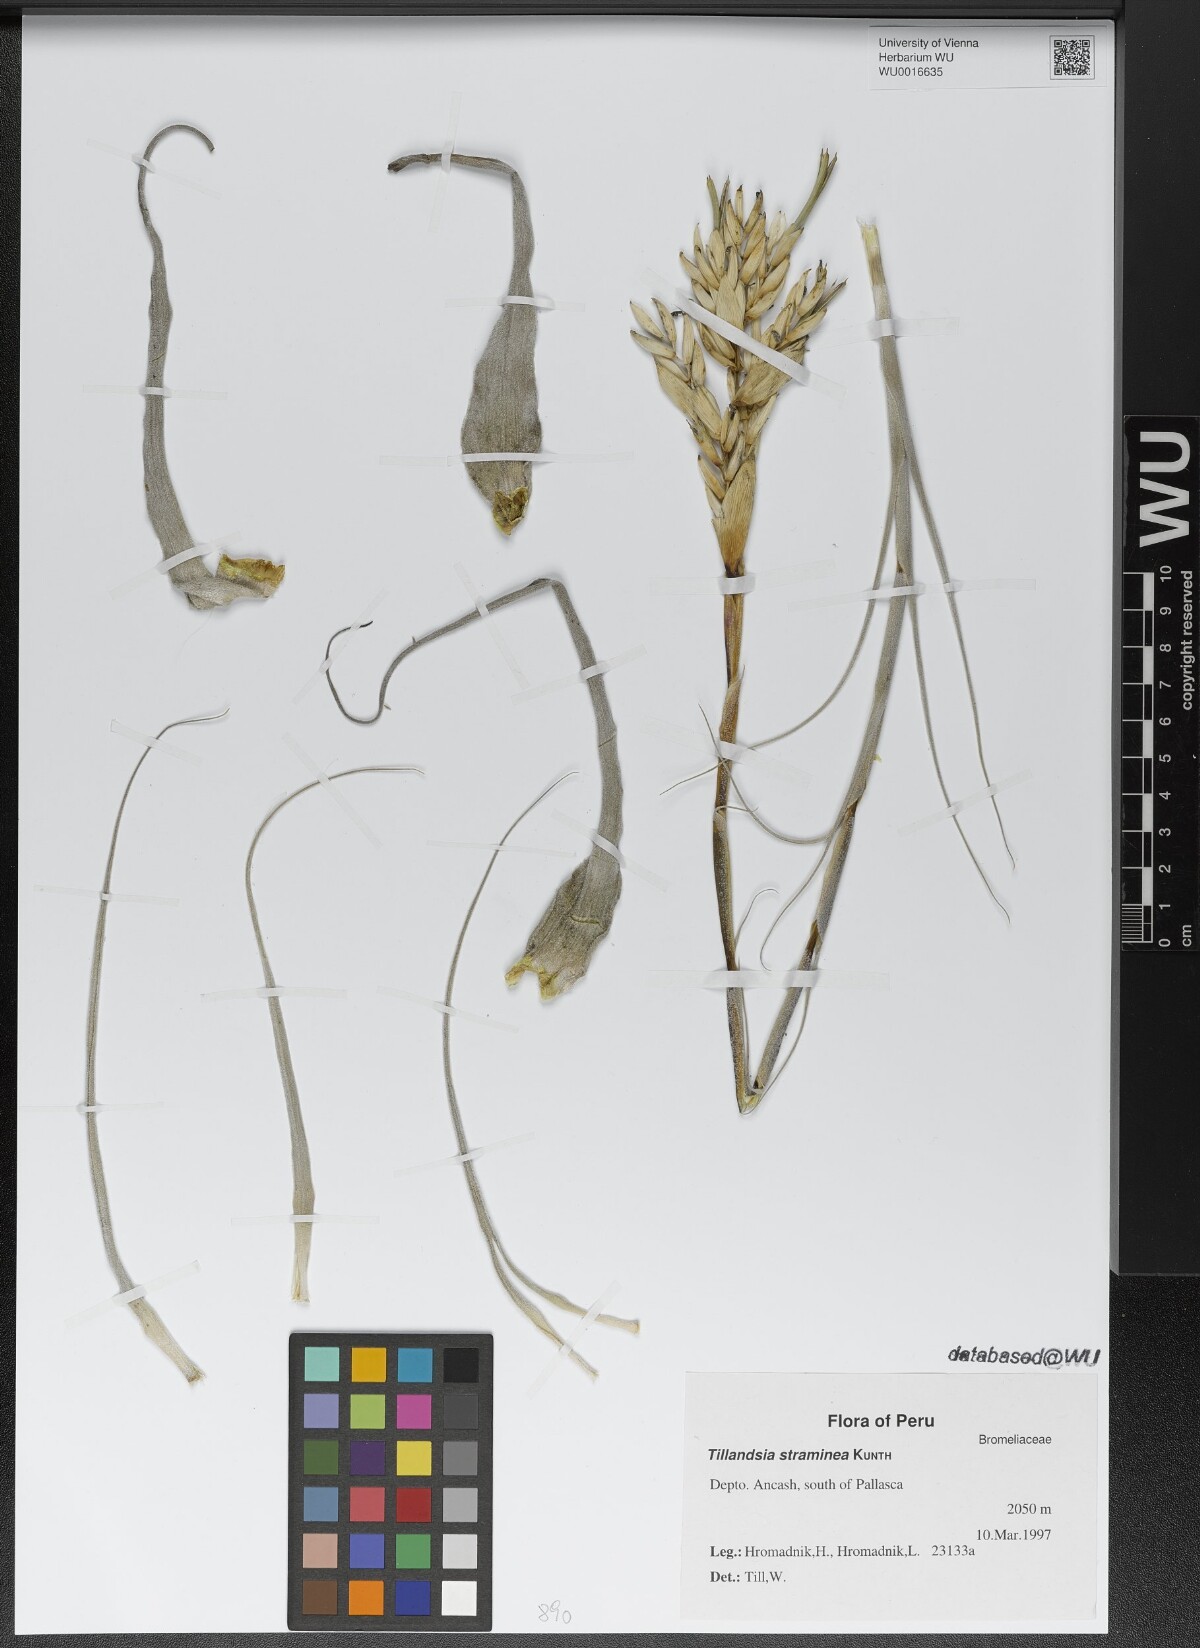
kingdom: Plantae
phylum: Tracheophyta
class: Liliopsida
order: Poales
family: Bromeliaceae
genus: Tillandsia
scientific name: Tillandsia straminea
